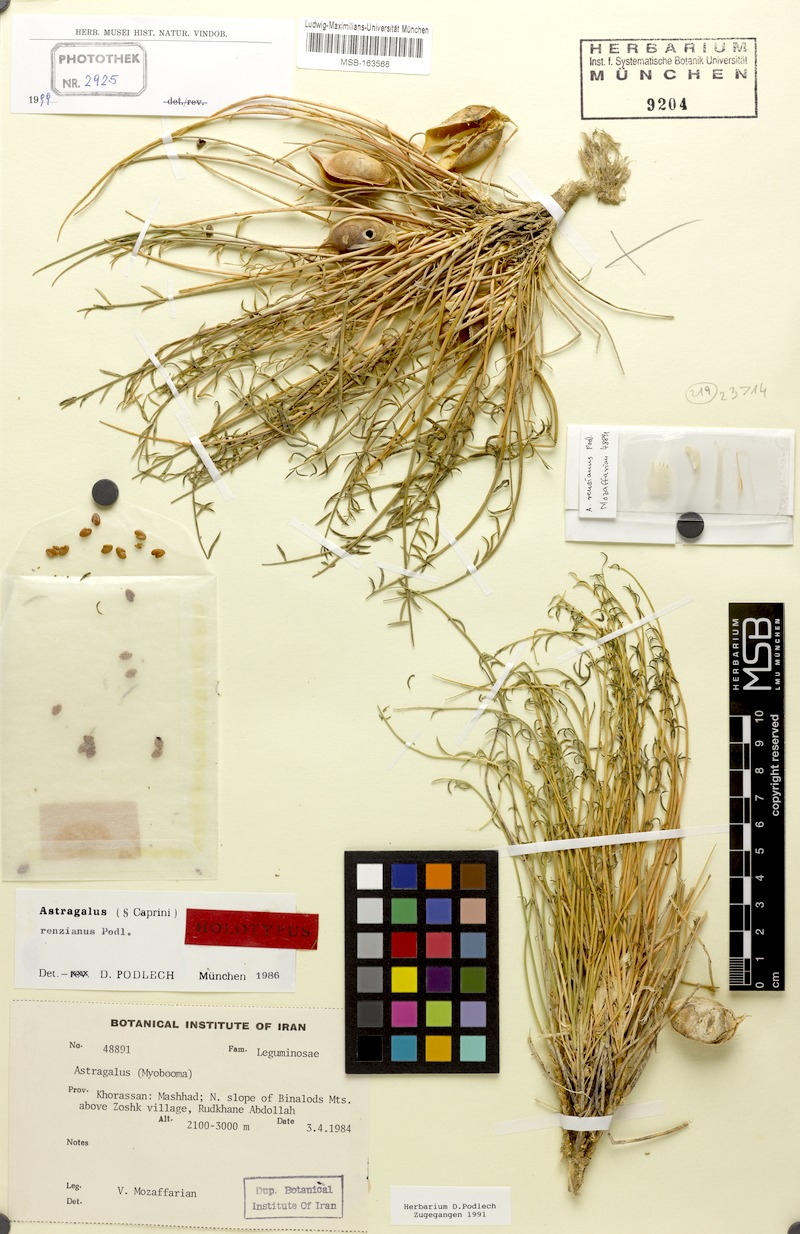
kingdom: Plantae
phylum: Tracheophyta
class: Magnoliopsida
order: Fabales
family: Fabaceae
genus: Astragalus
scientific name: Astragalus renzianus
